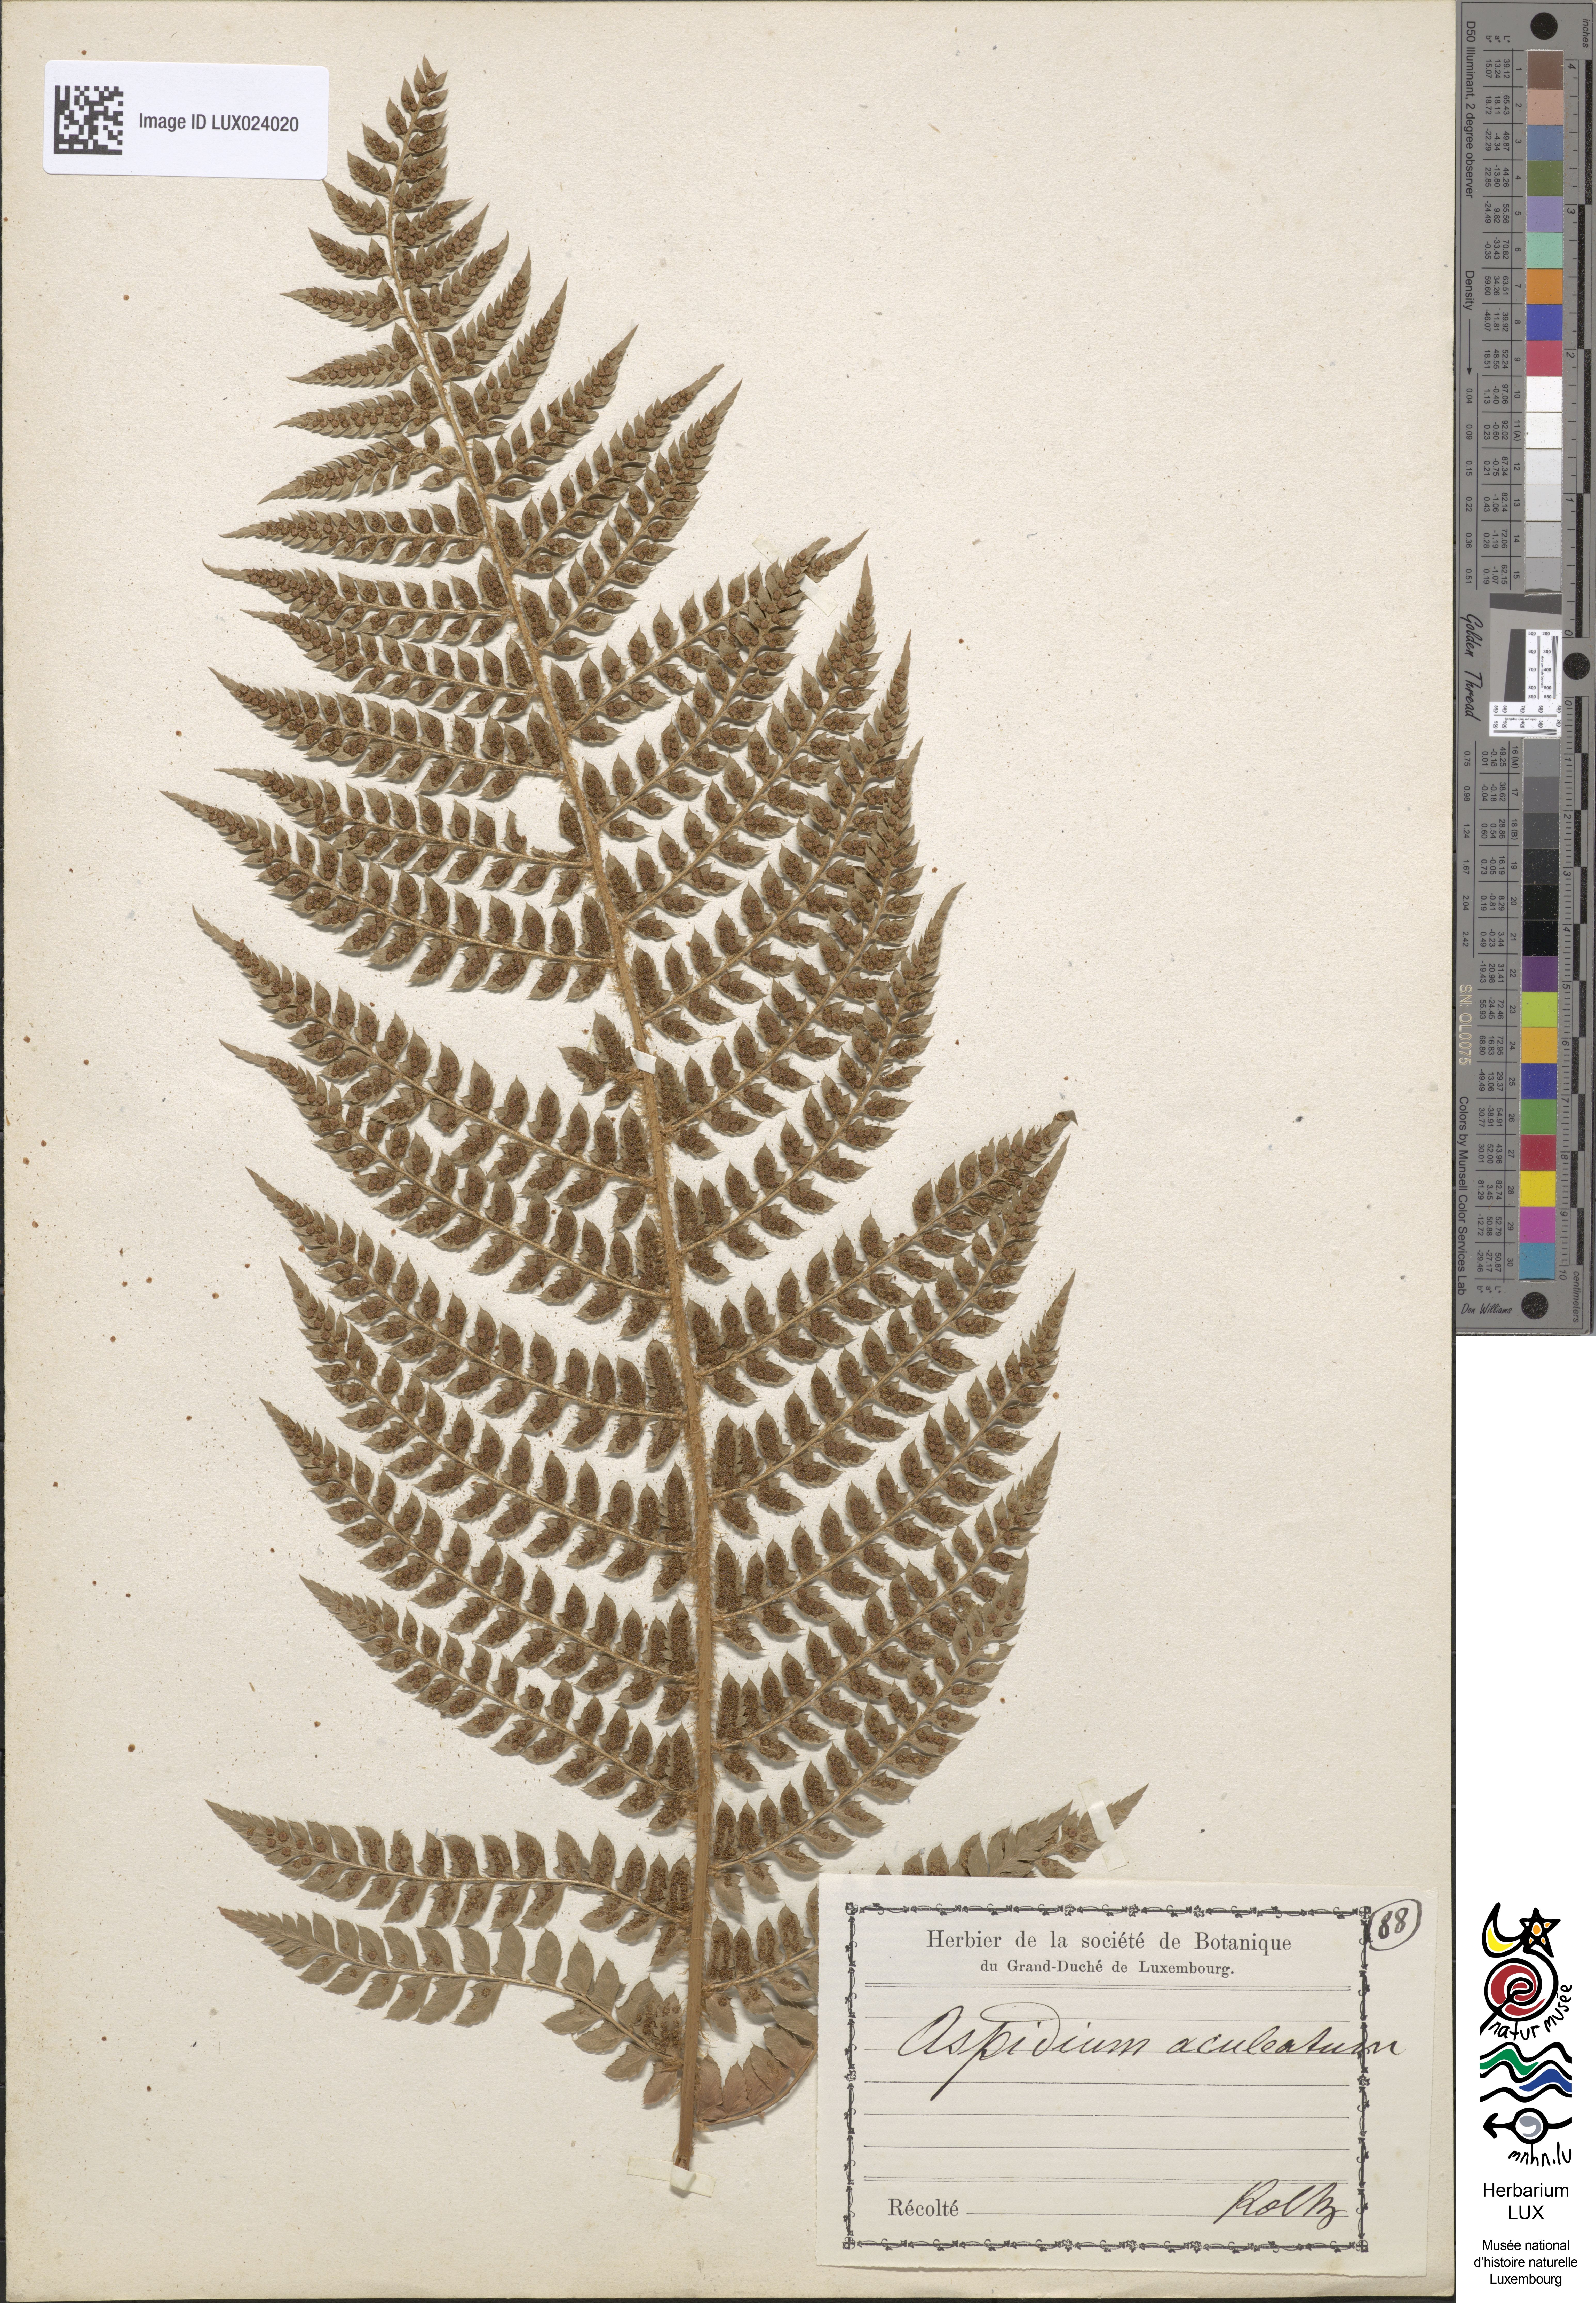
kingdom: Plantae
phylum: Tracheophyta
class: Polypodiopsida
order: Polypodiales
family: Dryopteridaceae
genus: Polystichum
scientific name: Polystichum
